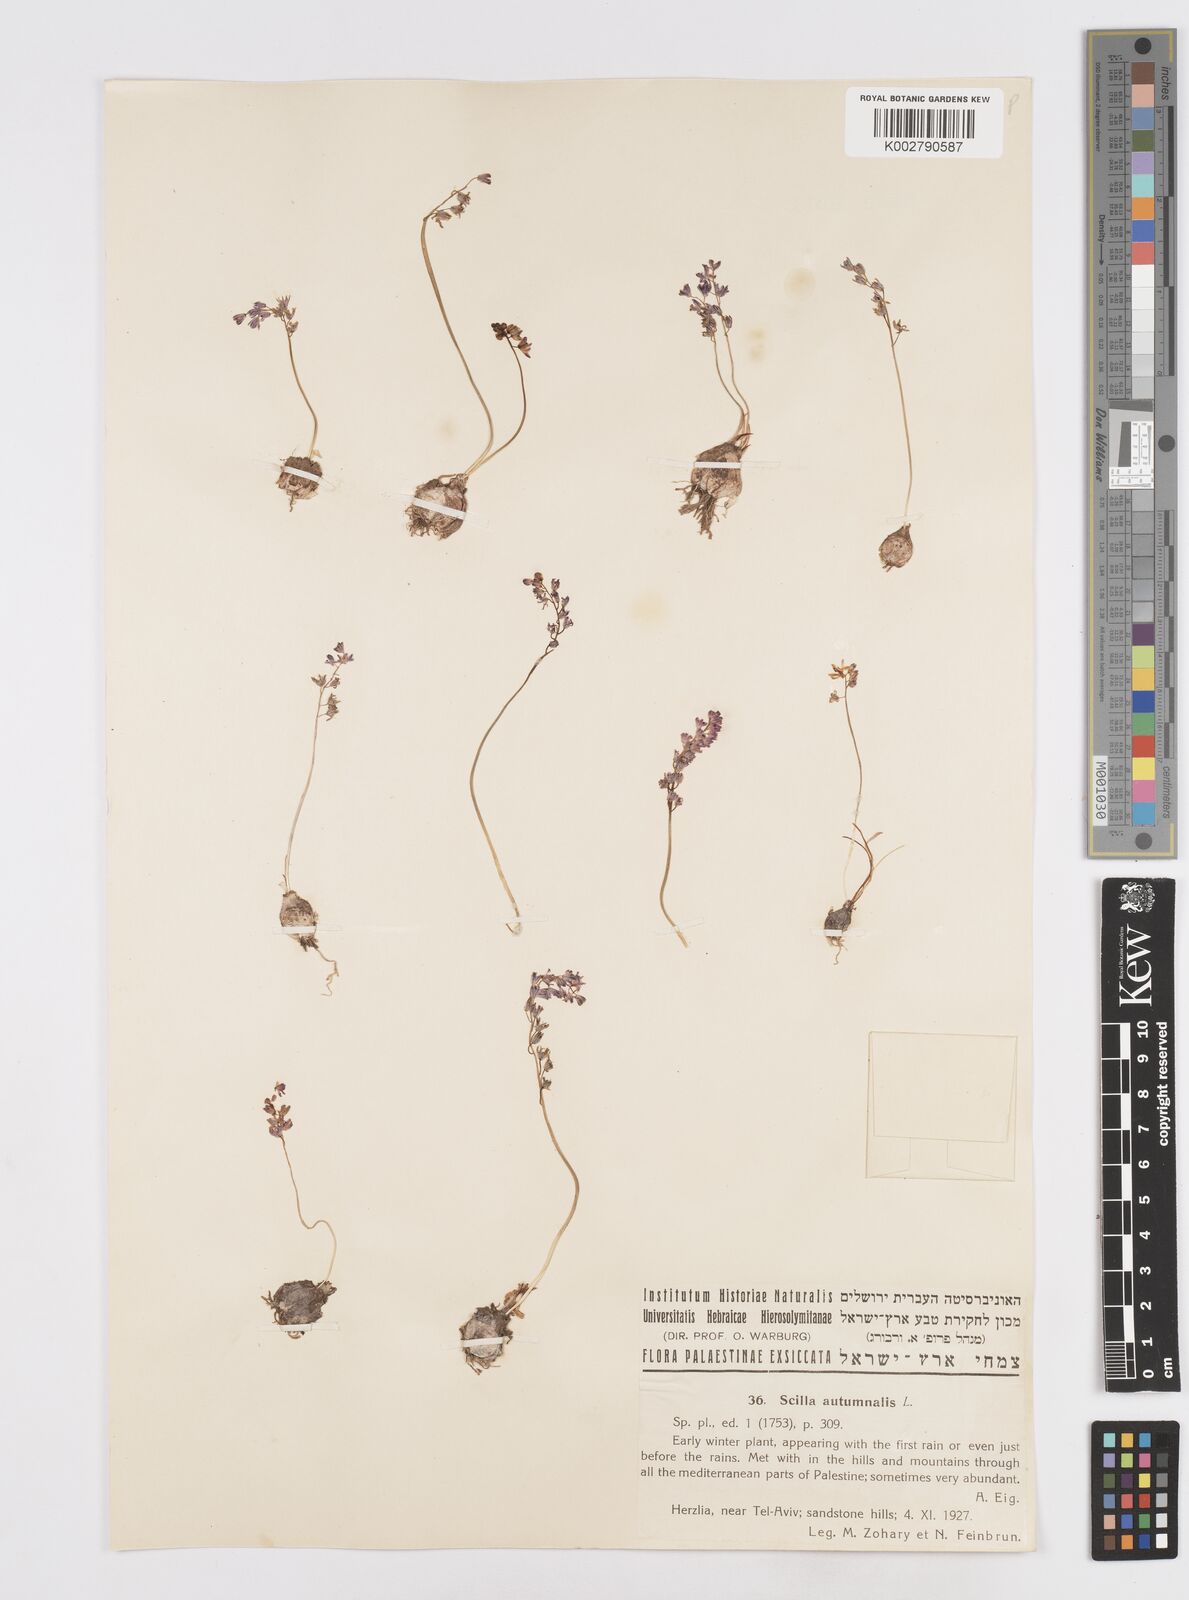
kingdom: Plantae
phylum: Tracheophyta
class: Liliopsida
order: Asparagales
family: Asparagaceae
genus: Prospero
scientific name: Prospero autumnale
